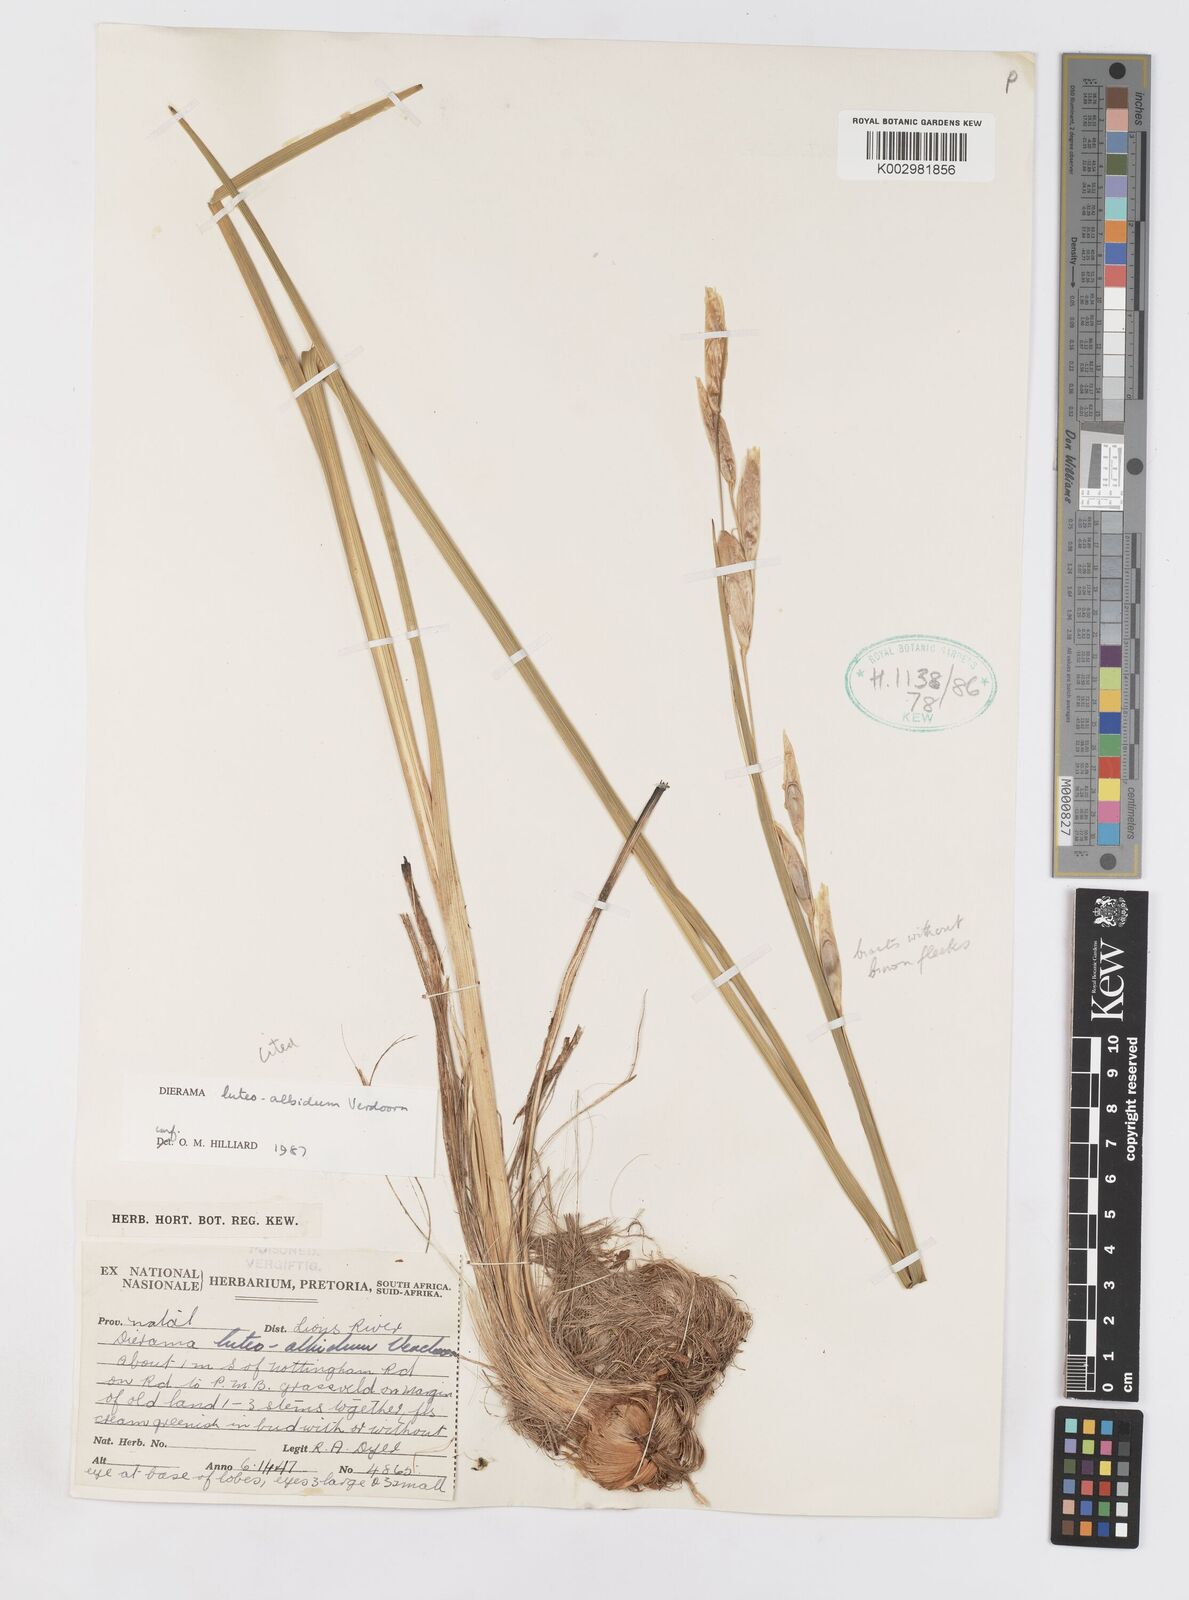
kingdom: Plantae
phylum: Tracheophyta
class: Liliopsida
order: Asparagales
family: Iridaceae
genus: Dierama
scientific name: Dierama luteoalbidum
